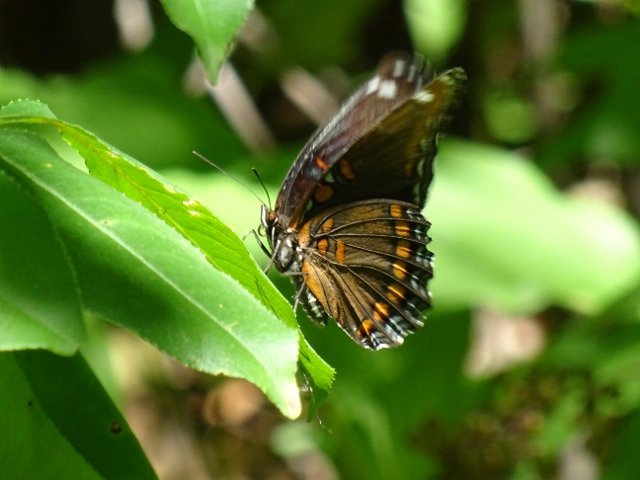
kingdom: Animalia
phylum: Arthropoda
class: Insecta
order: Lepidoptera
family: Nymphalidae
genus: Limenitis
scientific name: Limenitis astyanax
